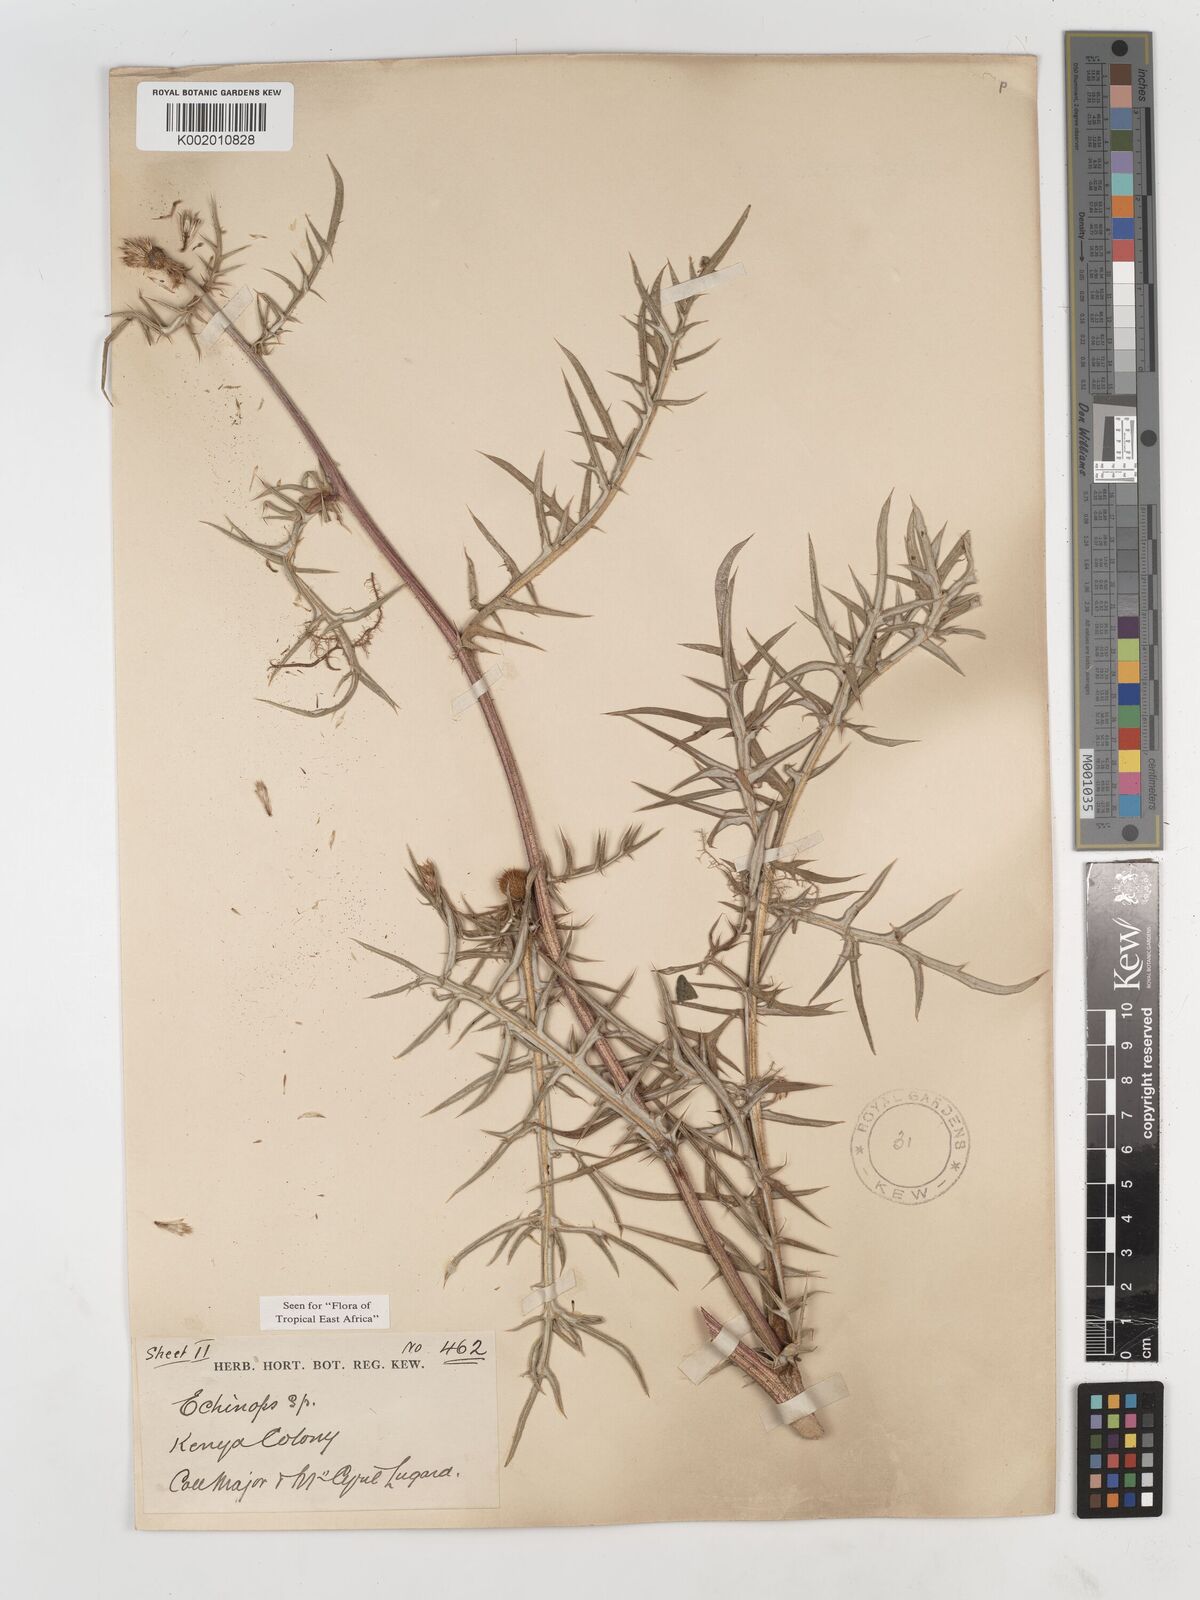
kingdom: Plantae
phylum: Tracheophyta
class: Magnoliopsida
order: Asterales
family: Asteraceae
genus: Echinops
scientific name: Echinops angustilobus
